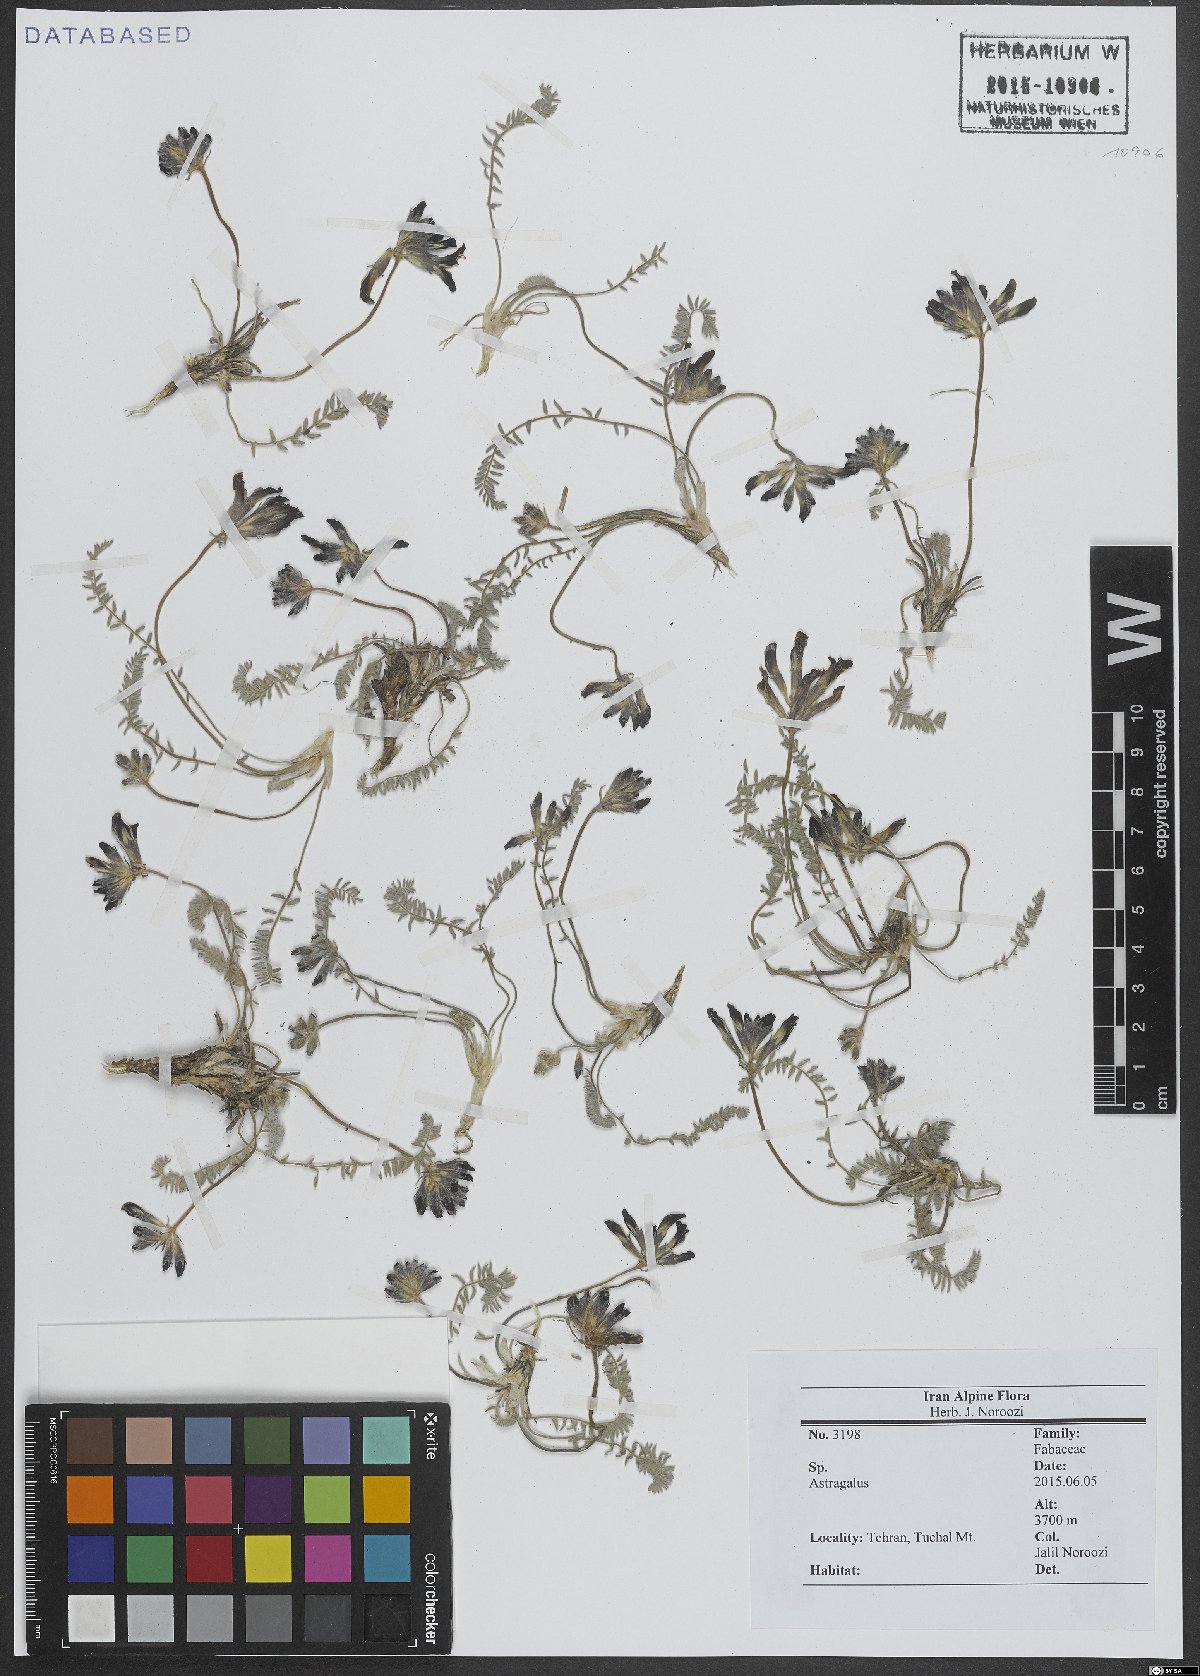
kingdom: Plantae
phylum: Tracheophyta
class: Magnoliopsida
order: Fabales
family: Fabaceae
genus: Astragalus
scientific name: Astragalus
